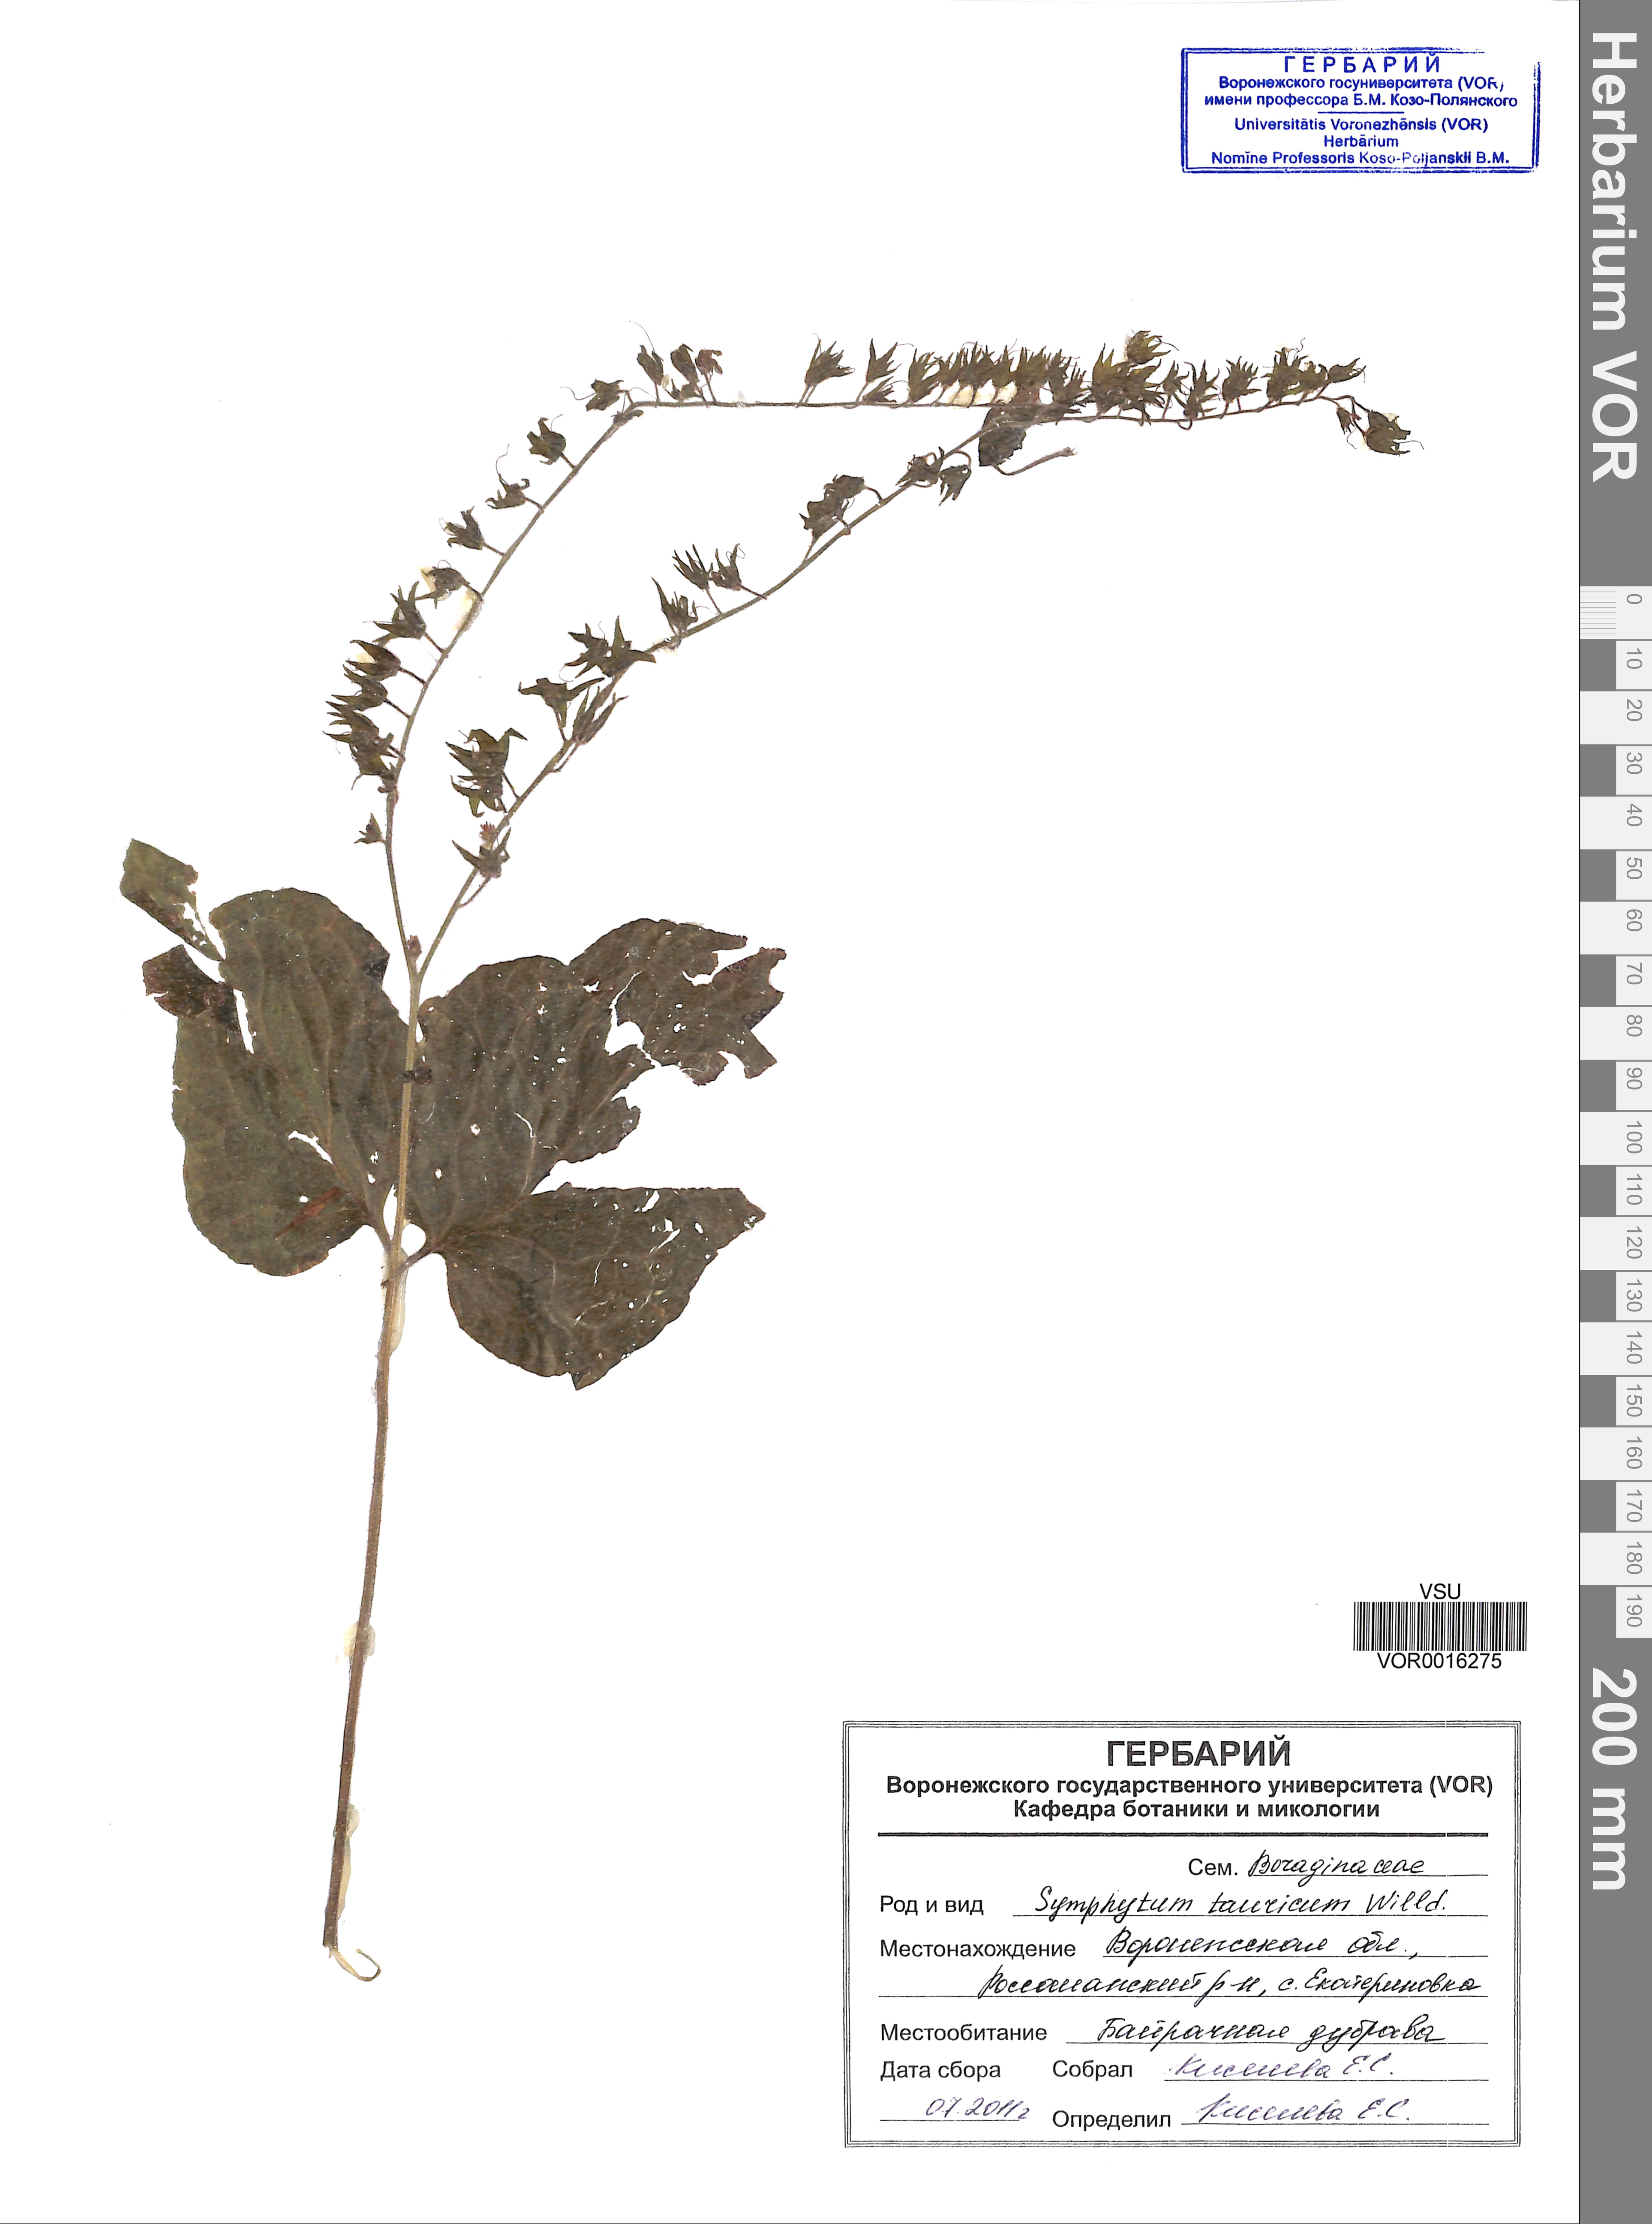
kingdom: Plantae
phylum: Tracheophyta
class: Magnoliopsida
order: Boraginales
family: Boraginaceae
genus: Symphytum
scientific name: Symphytum tauricum
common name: Crimean comfrey
